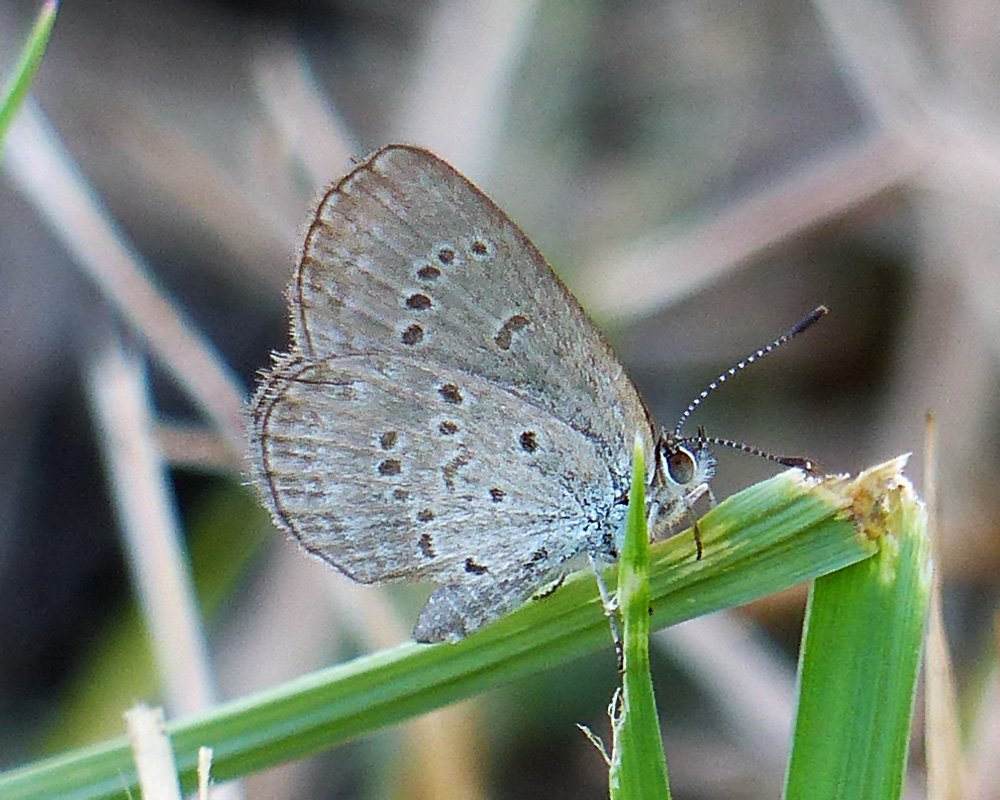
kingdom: Animalia
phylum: Arthropoda
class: Insecta
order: Lepidoptera
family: Lycaenidae
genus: Zizina
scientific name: Zizina otis
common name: Lesser Grass Blue
